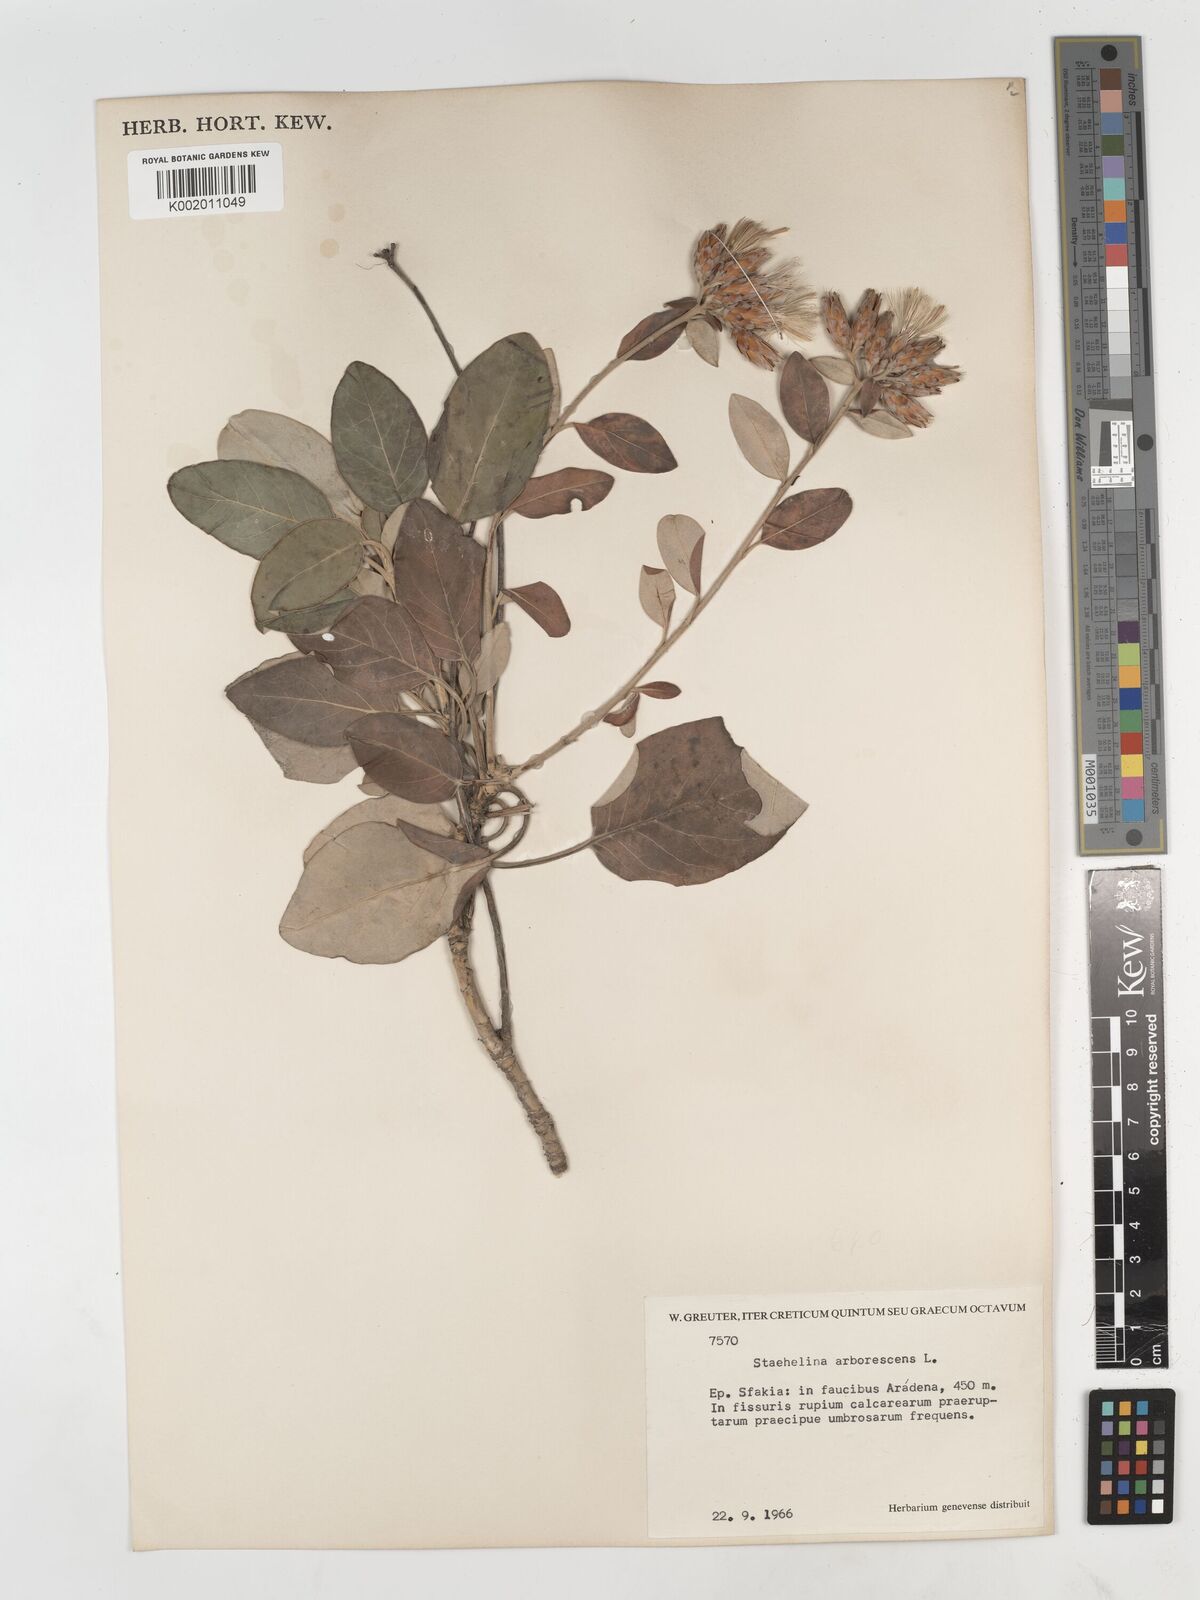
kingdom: Plantae
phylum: Tracheophyta
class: Magnoliopsida
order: Asterales
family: Asteraceae
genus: Staehelina
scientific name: Staehelina petiolata
